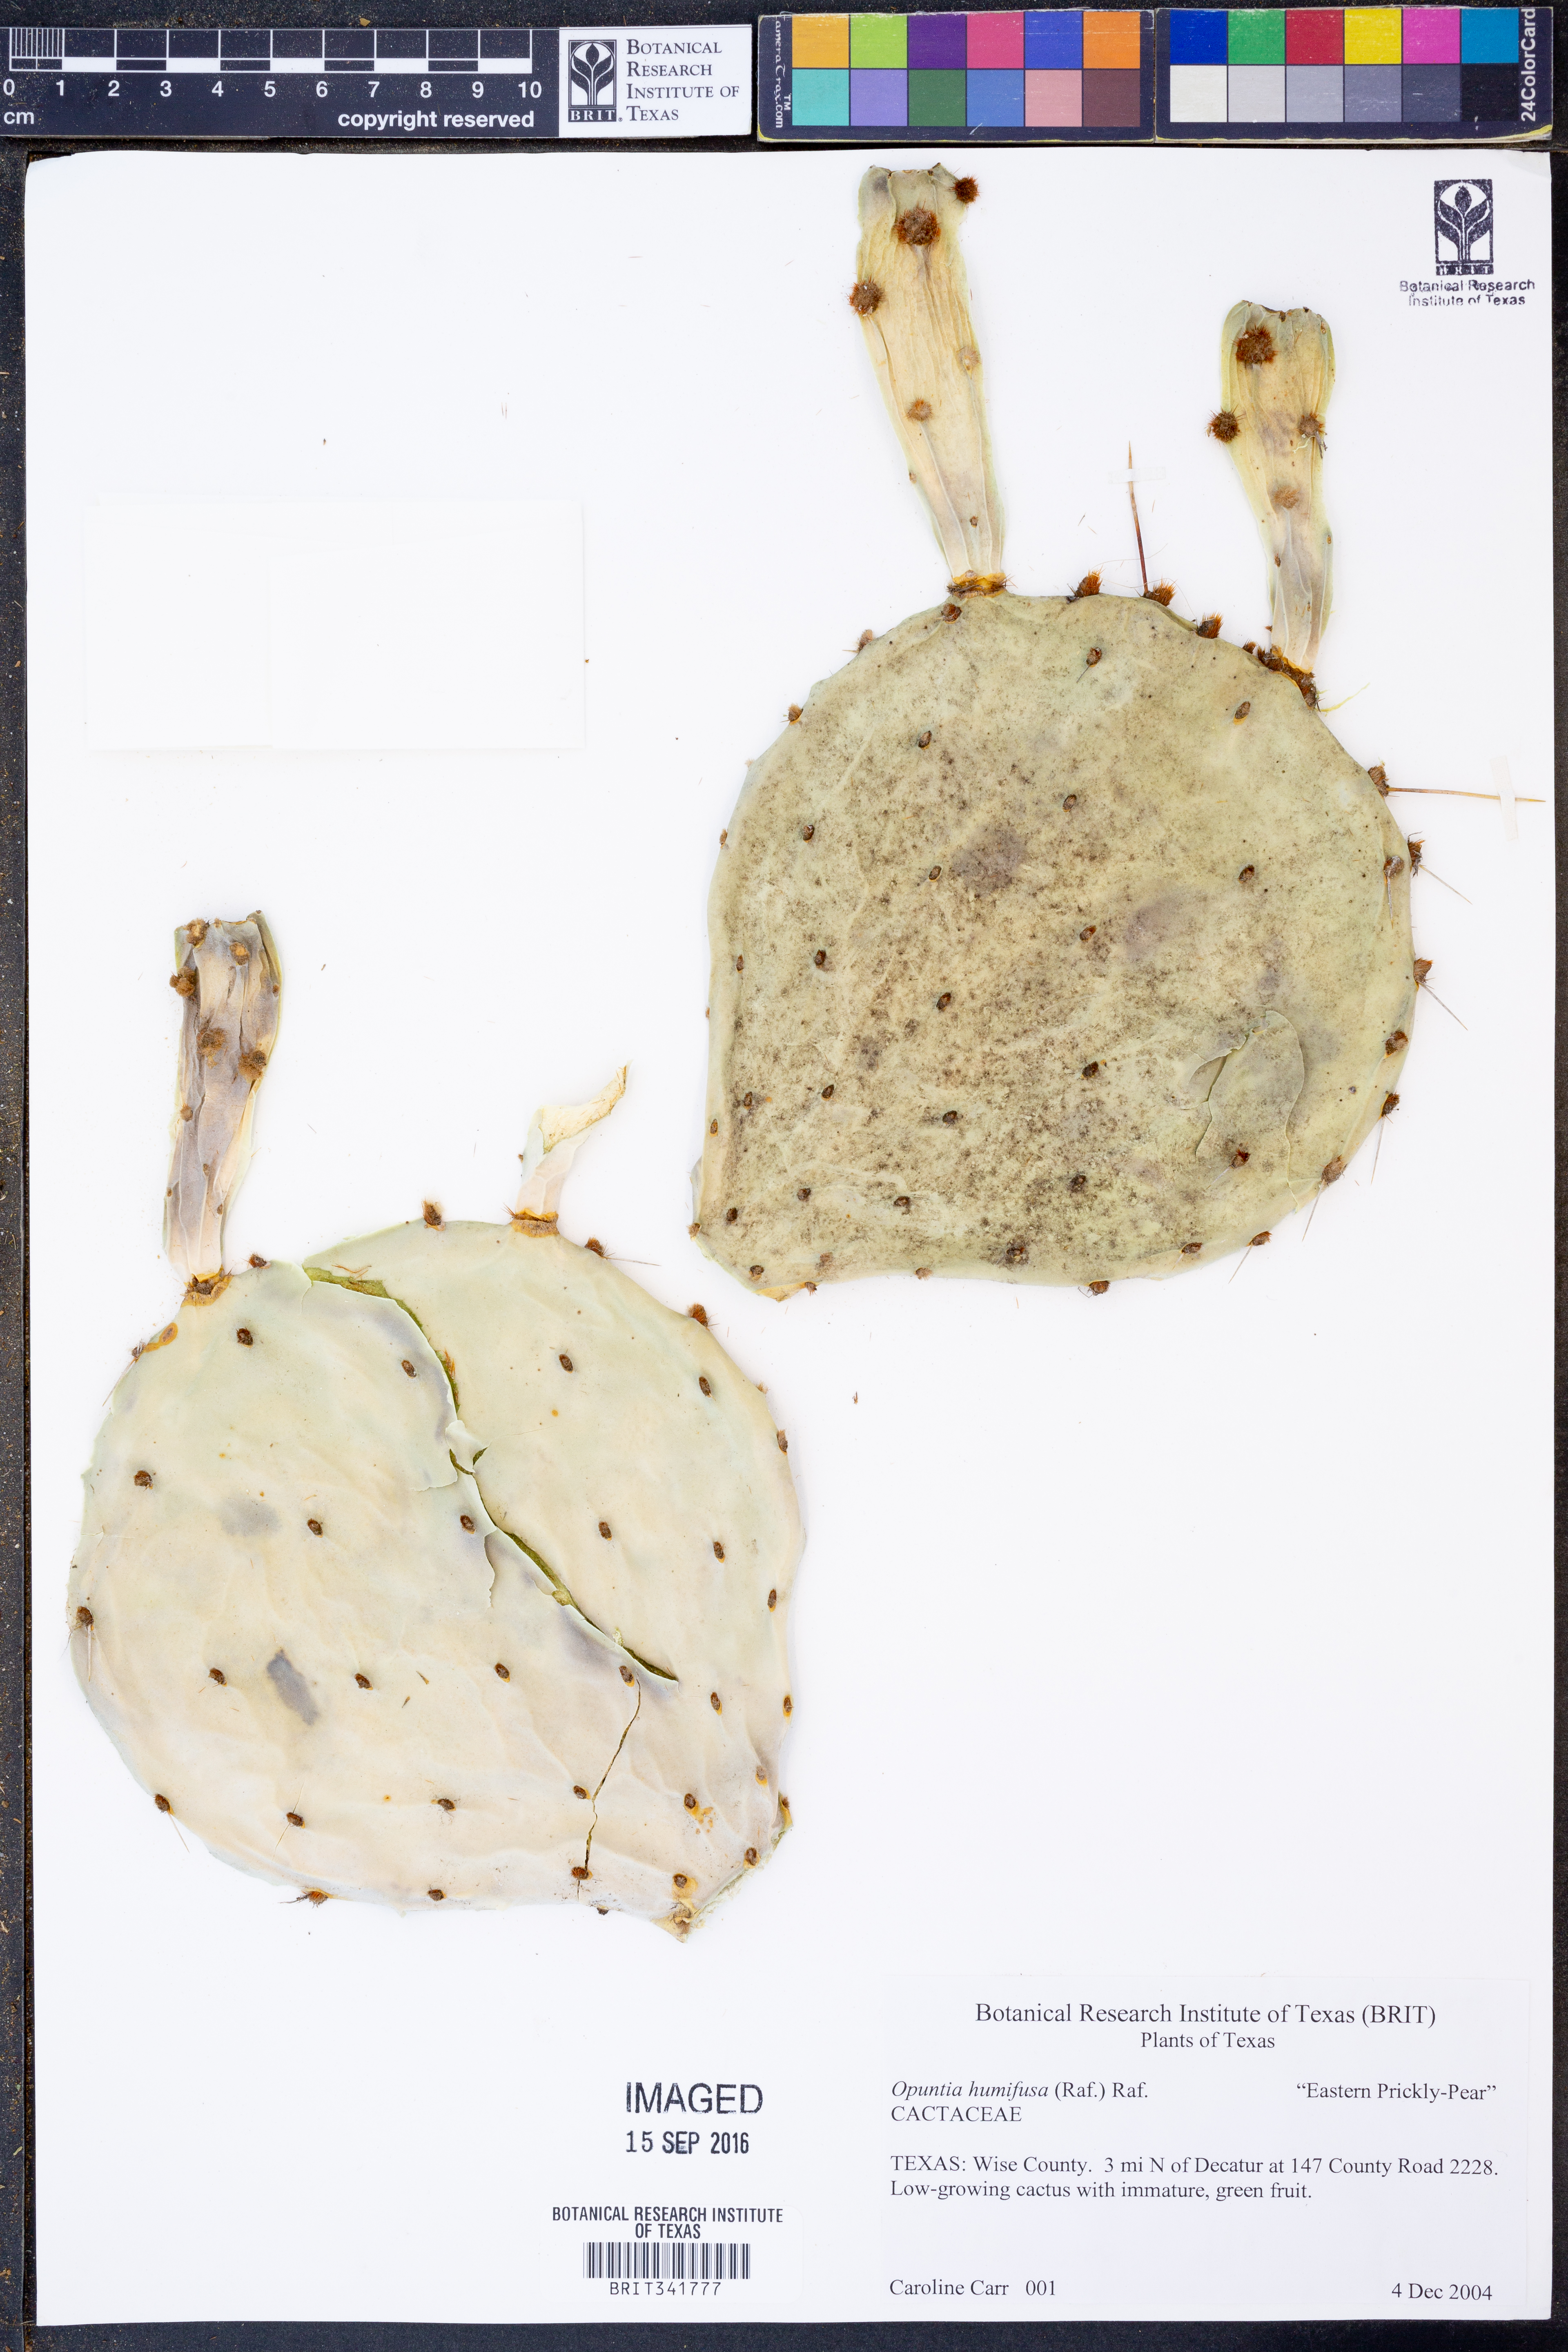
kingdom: Plantae
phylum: Tracheophyta
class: Magnoliopsida
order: Caryophyllales
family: Cactaceae
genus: Opuntia
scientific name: Opuntia humifusa
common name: Eastern prickly-pear
